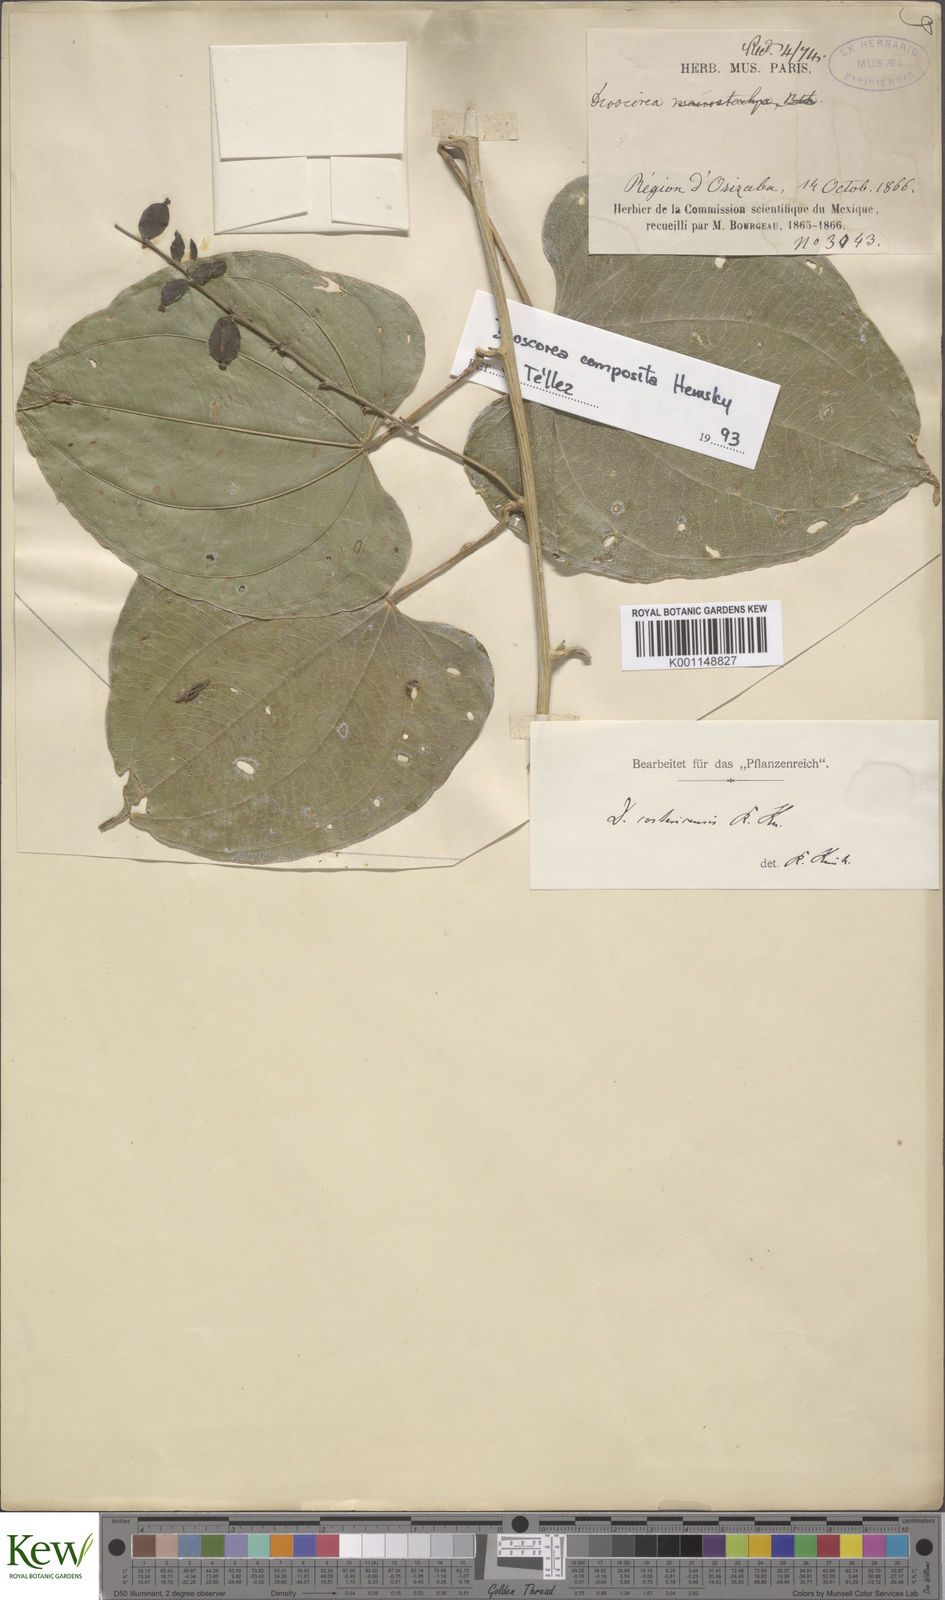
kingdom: Plantae
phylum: Tracheophyta
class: Liliopsida
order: Dioscoreales
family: Dioscoreaceae
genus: Dioscorea
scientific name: Dioscorea pilosiuscula
